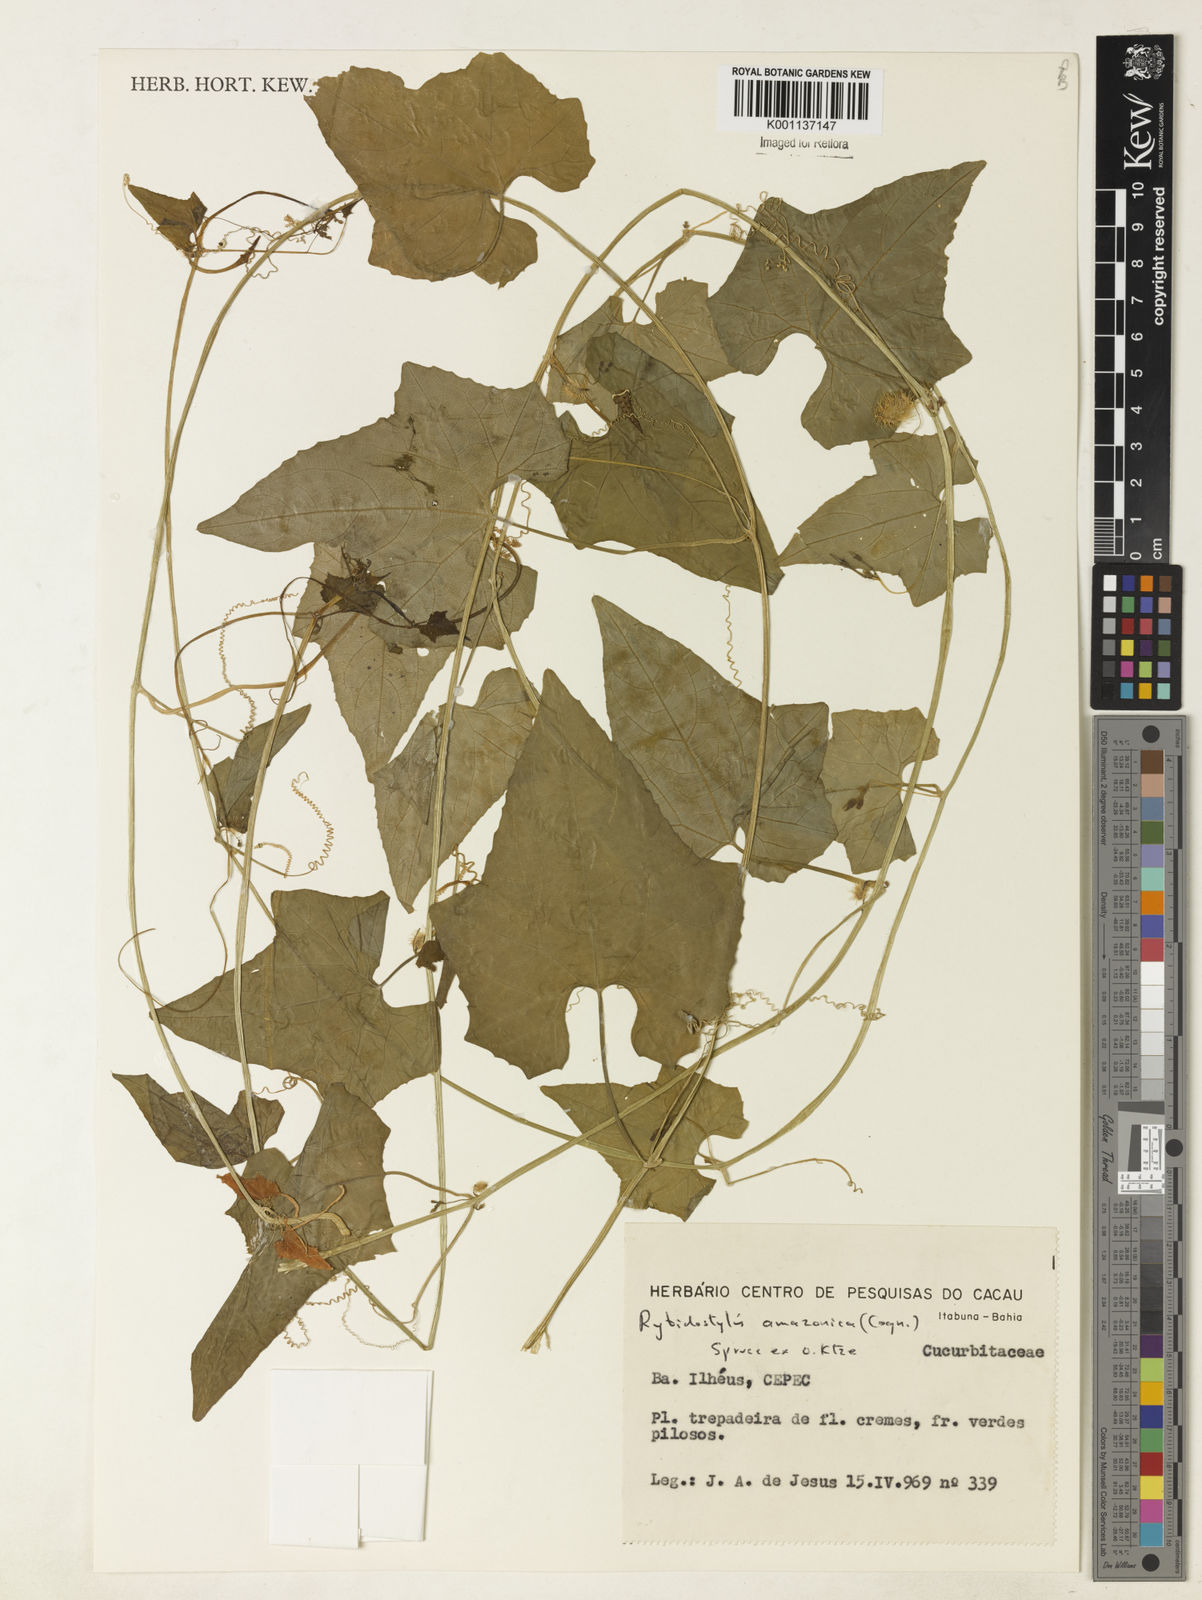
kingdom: Plantae
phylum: Tracheophyta
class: Magnoliopsida
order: Cucurbitales
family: Cucurbitaceae
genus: Cyclanthera
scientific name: Cyclanthera carthagenensis
